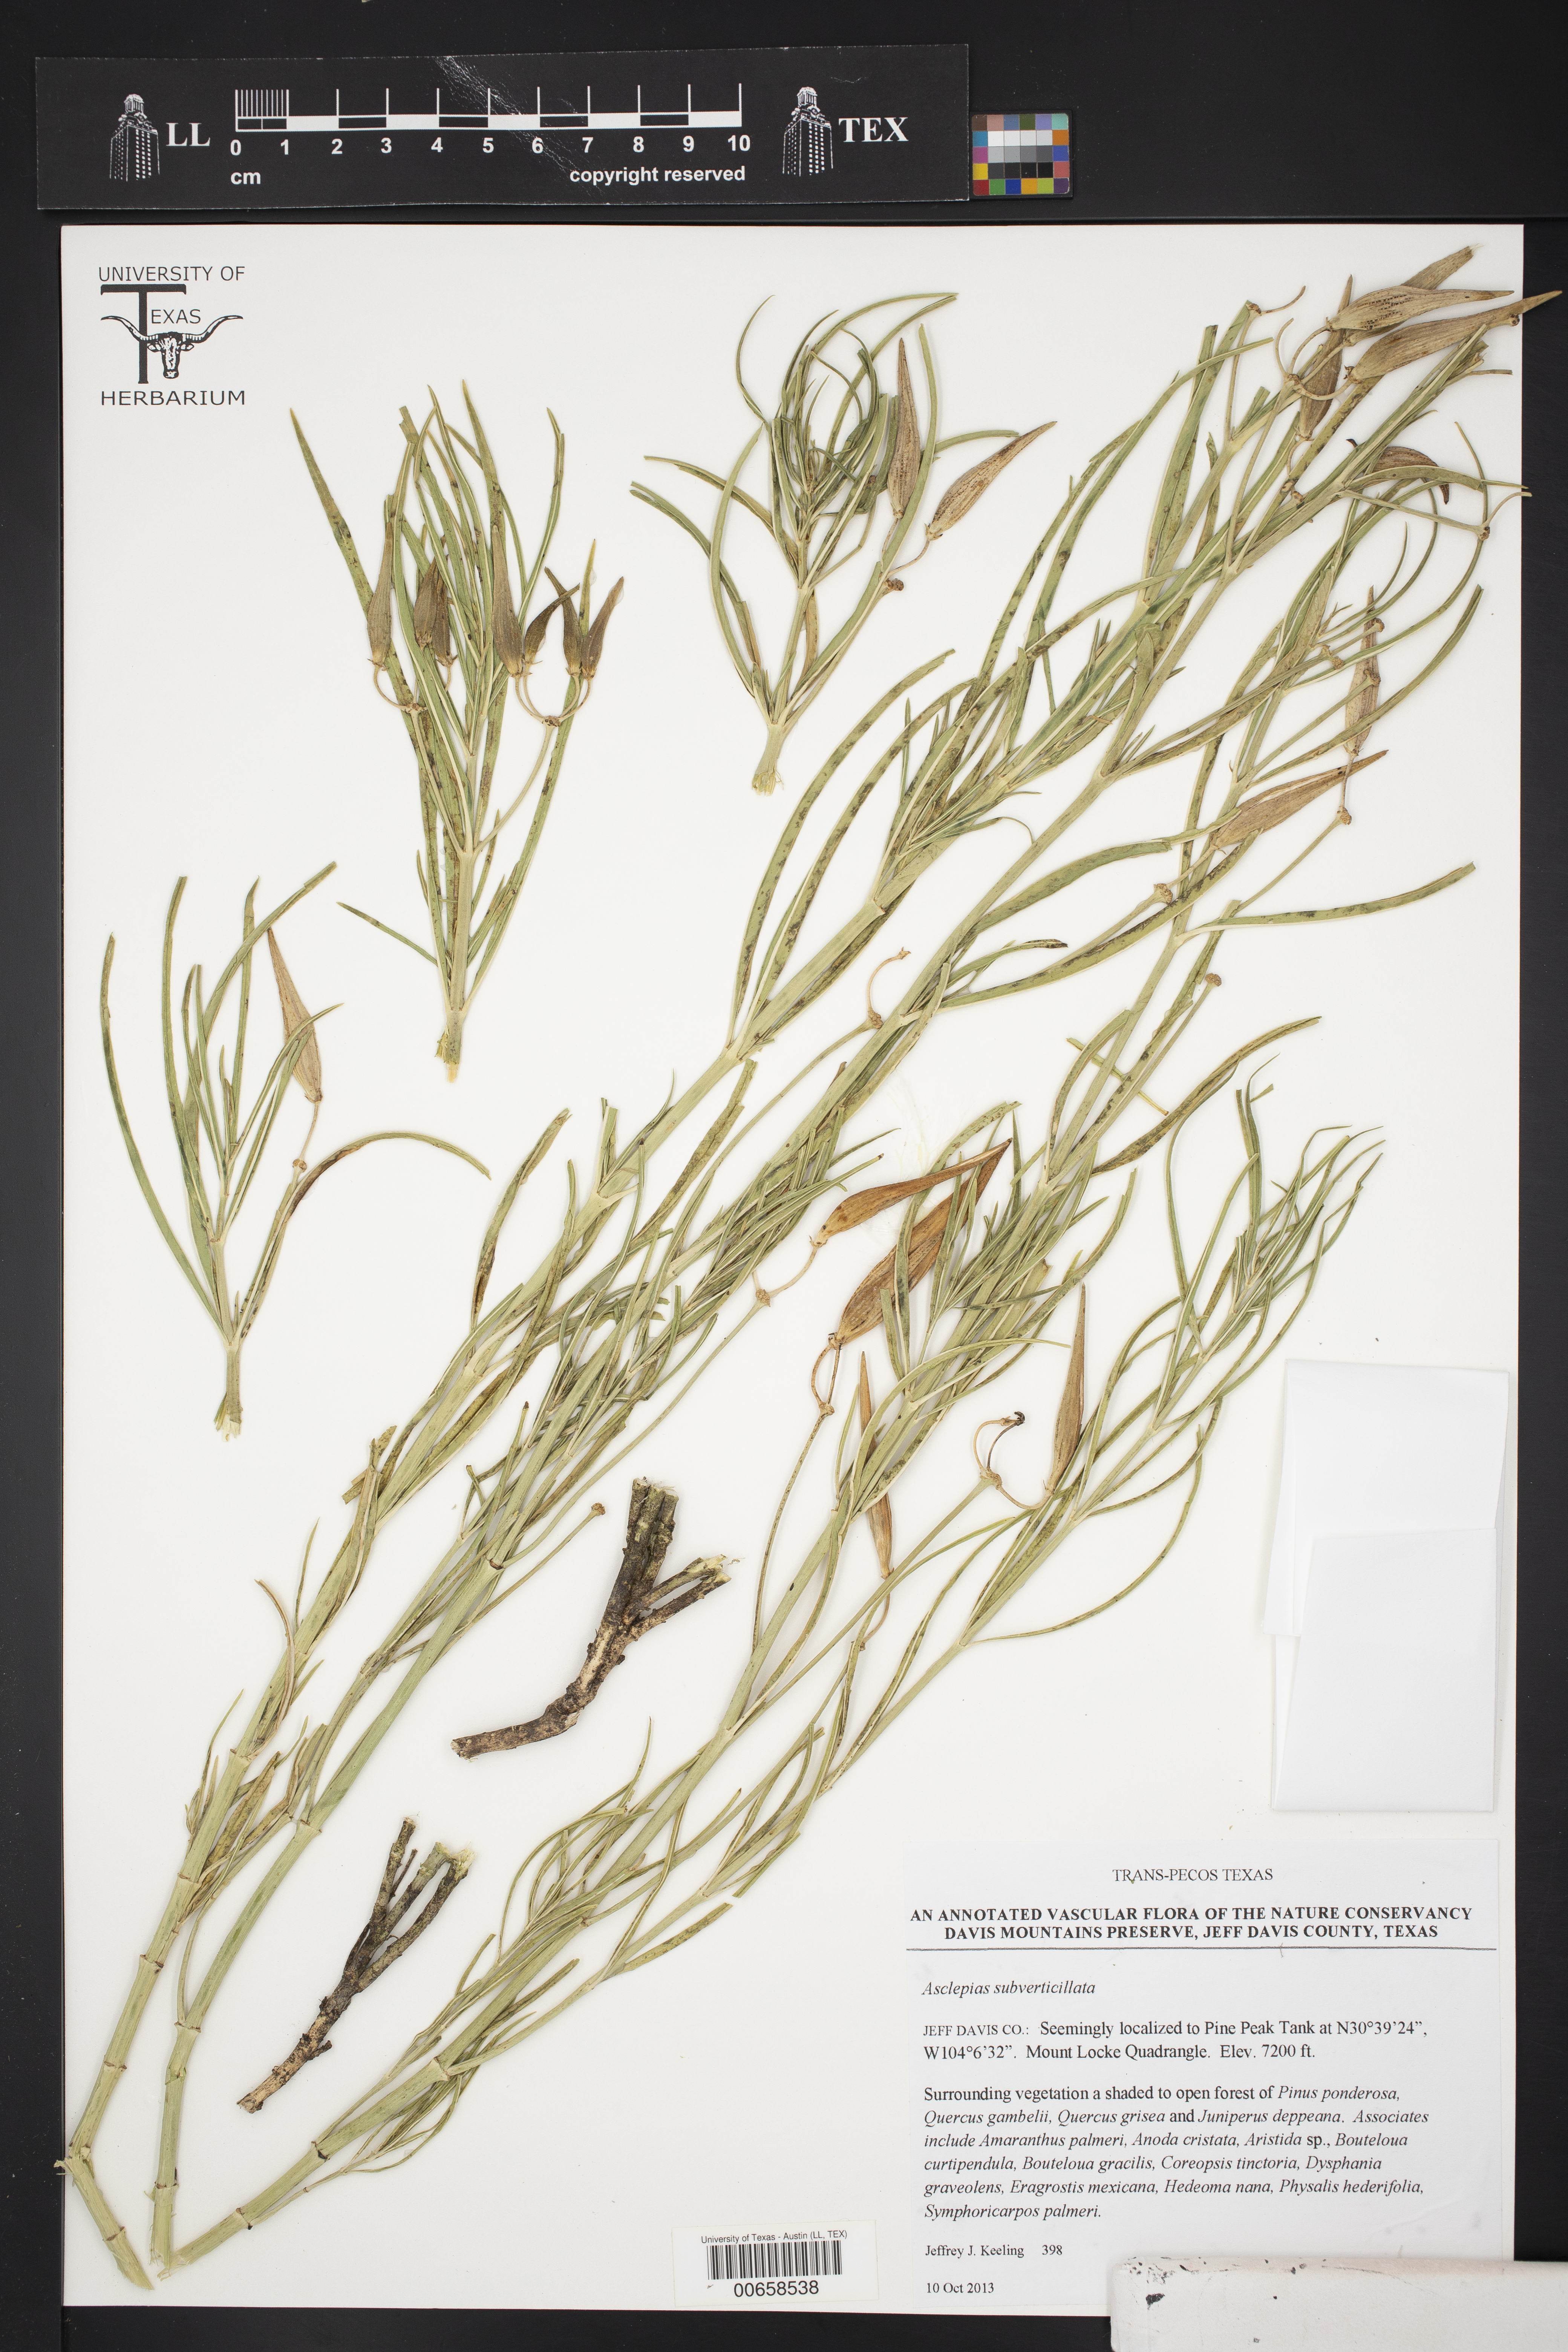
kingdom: Plantae
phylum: Tracheophyta
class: Magnoliopsida
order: Gentianales
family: Apocynaceae
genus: Asclepias
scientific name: Asclepias subverticillata
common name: Horsetail milkweed
